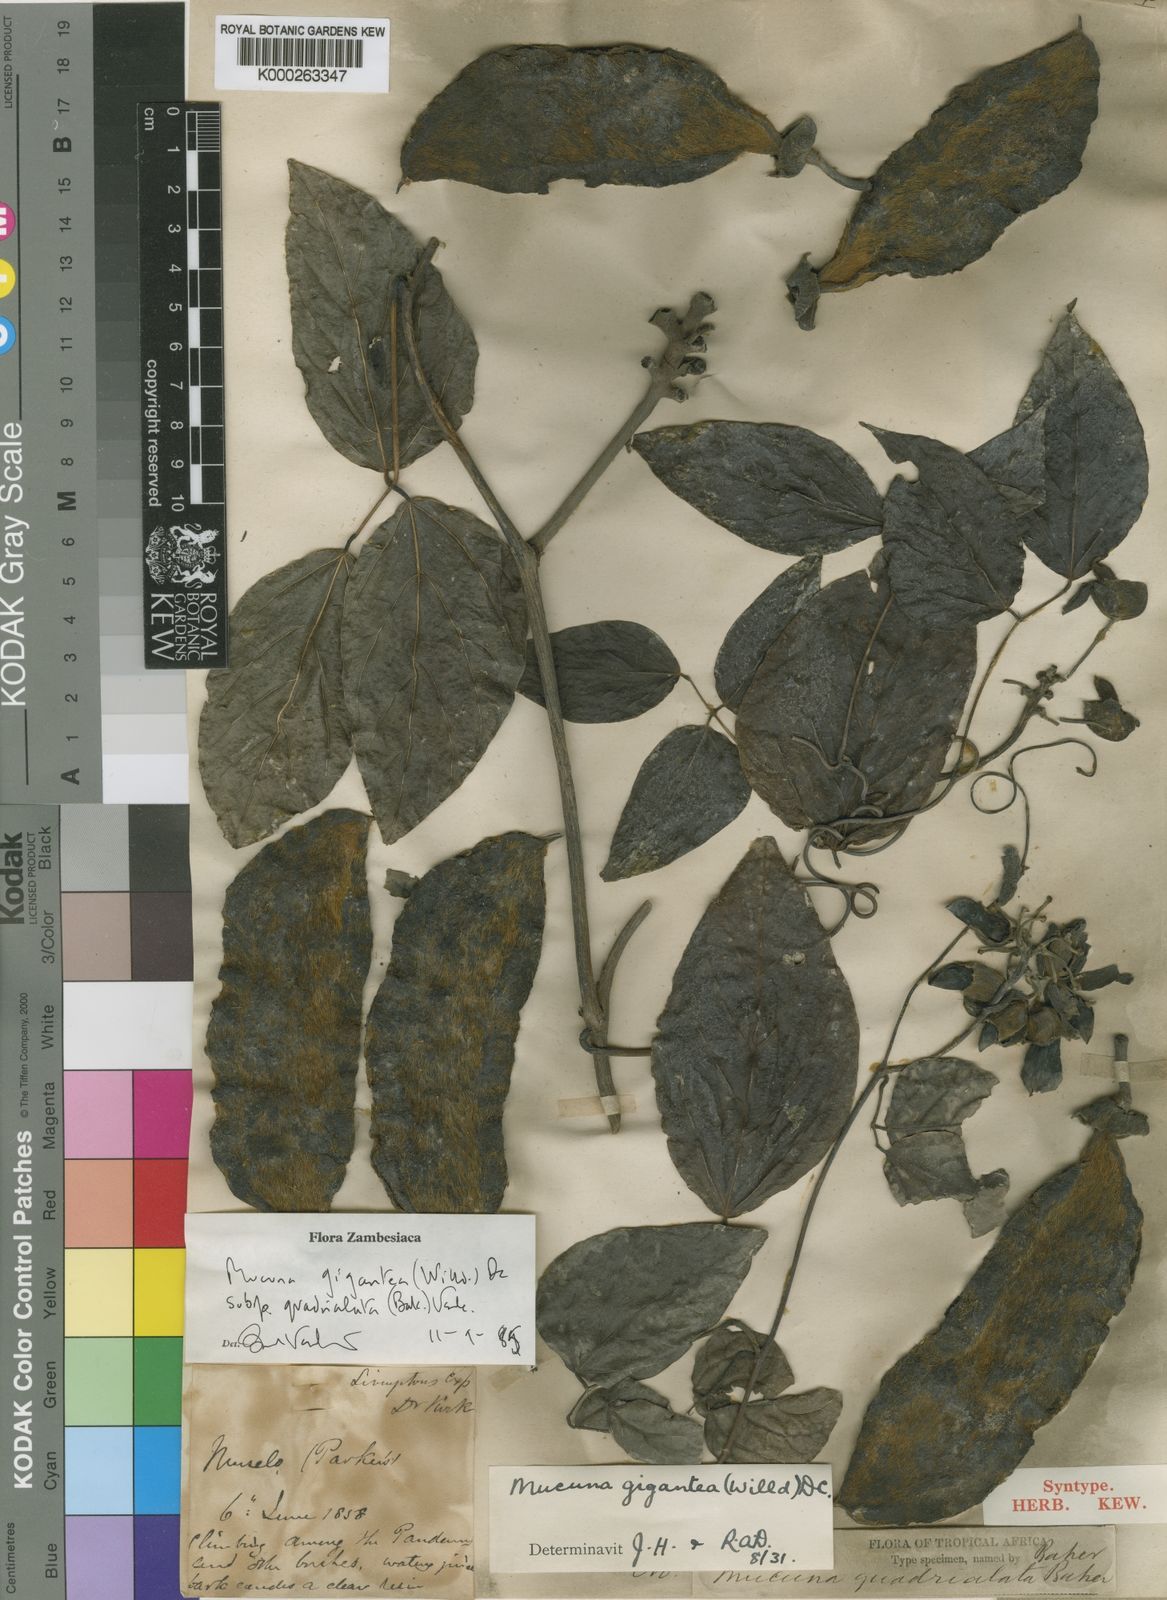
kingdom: Plantae
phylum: Tracheophyta
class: Magnoliopsida
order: Fabales
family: Fabaceae
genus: Mucuna
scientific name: Mucuna gigantea
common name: Black-bean
